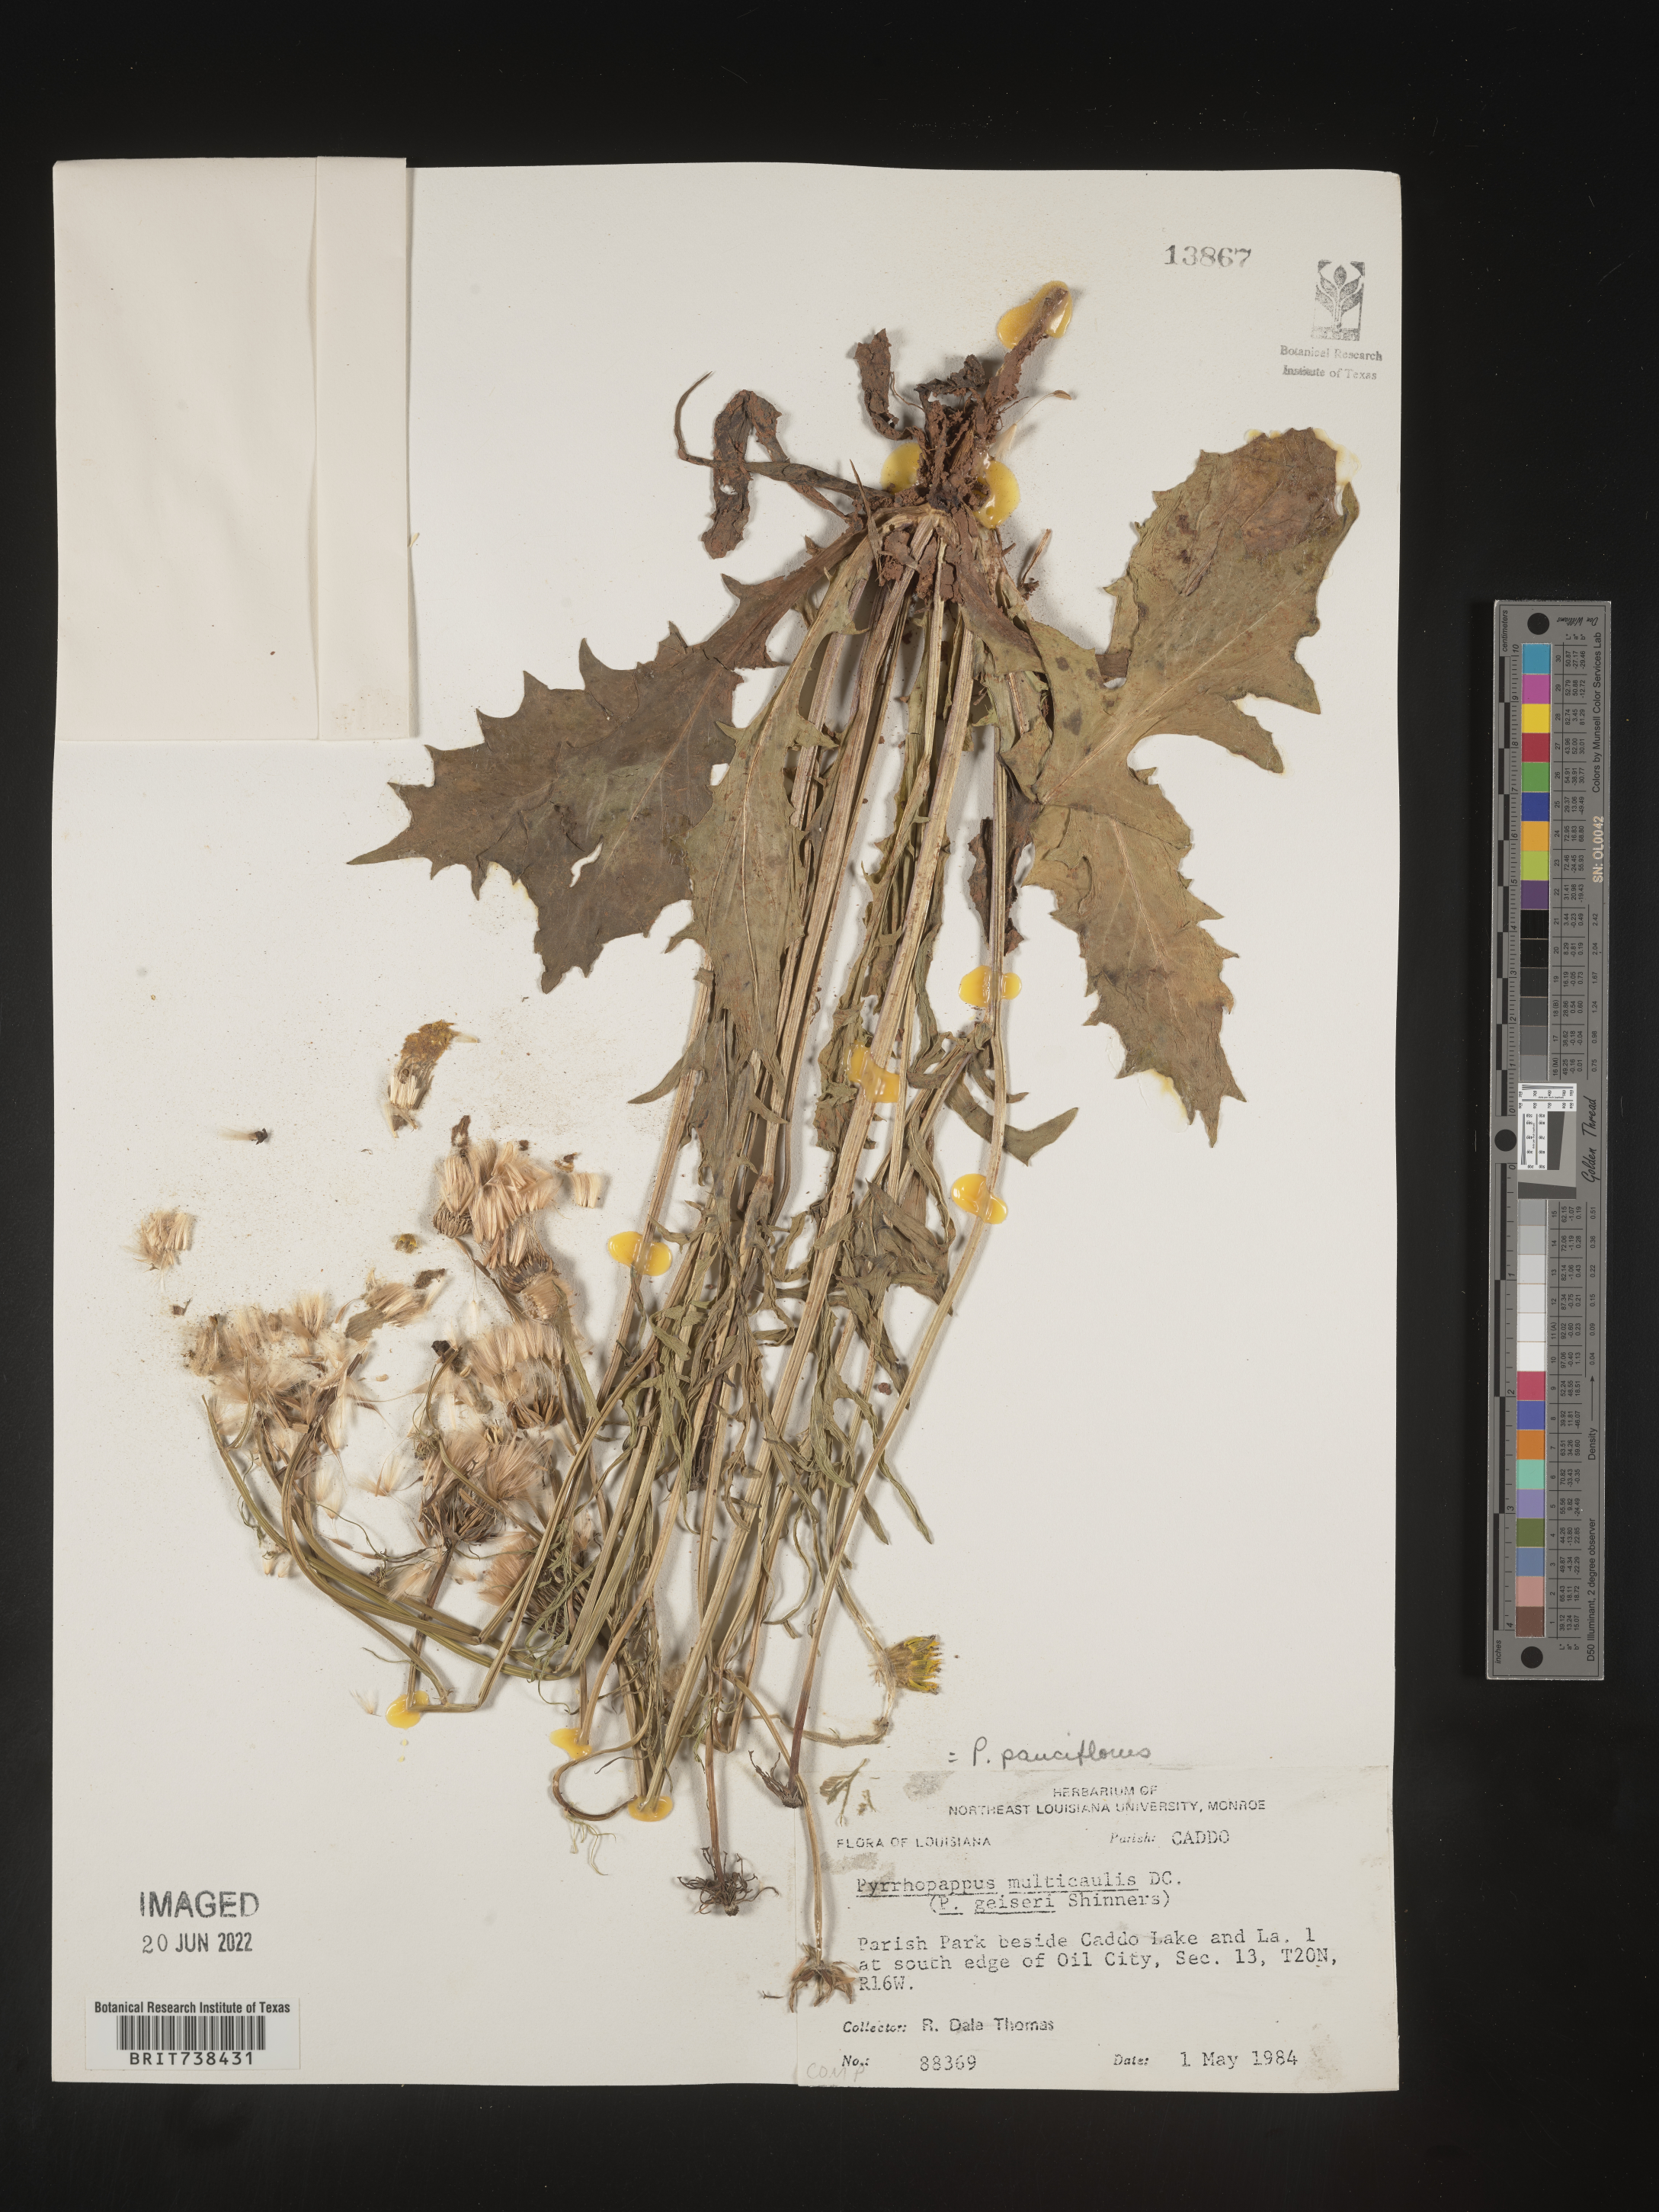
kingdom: Plantae
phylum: Tracheophyta
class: Magnoliopsida
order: Asterales
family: Asteraceae
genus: Pyrrhopappus
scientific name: Pyrrhopappus pauciflorus
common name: Texas false dandelion
